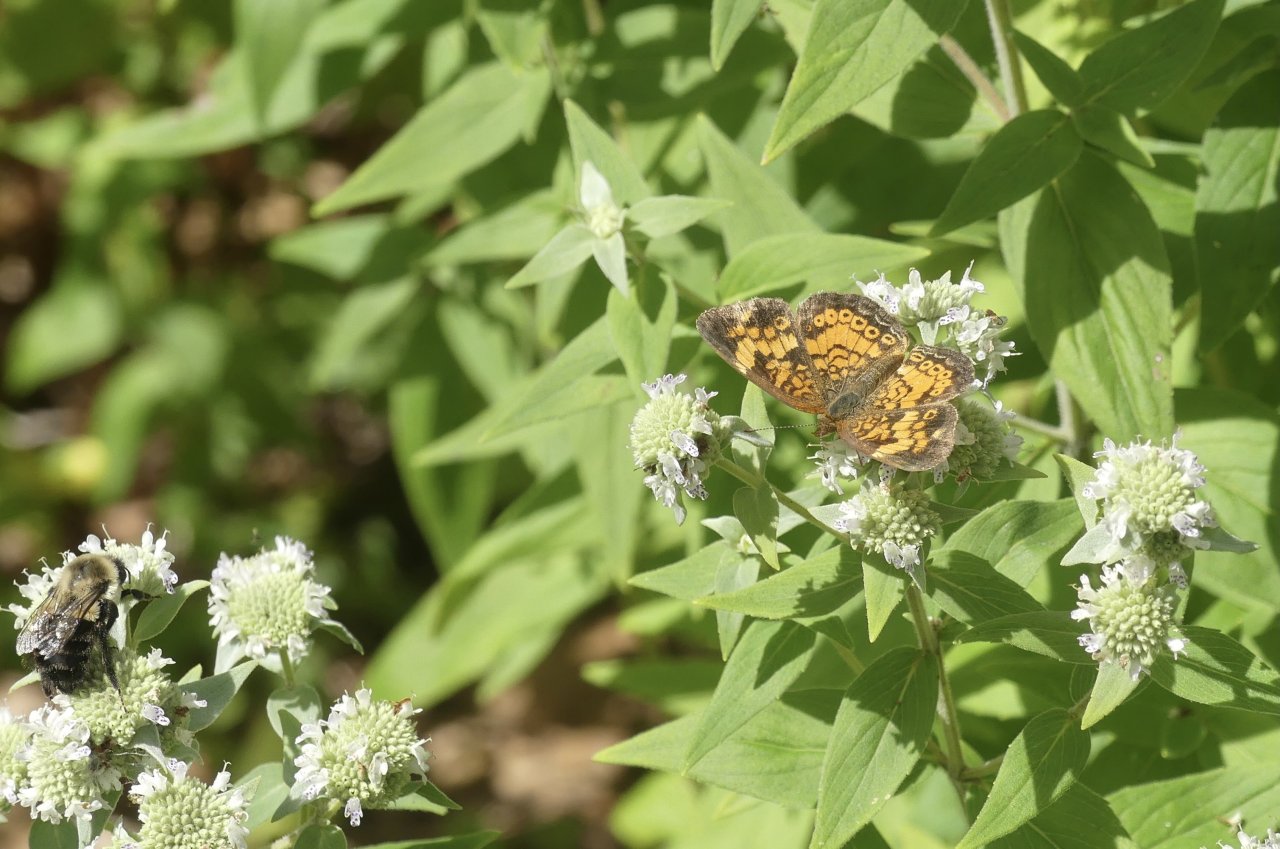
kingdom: Animalia
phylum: Arthropoda
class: Insecta
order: Lepidoptera
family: Nymphalidae
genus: Phyciodes
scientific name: Phyciodes tharos
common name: Pearl Crescent
